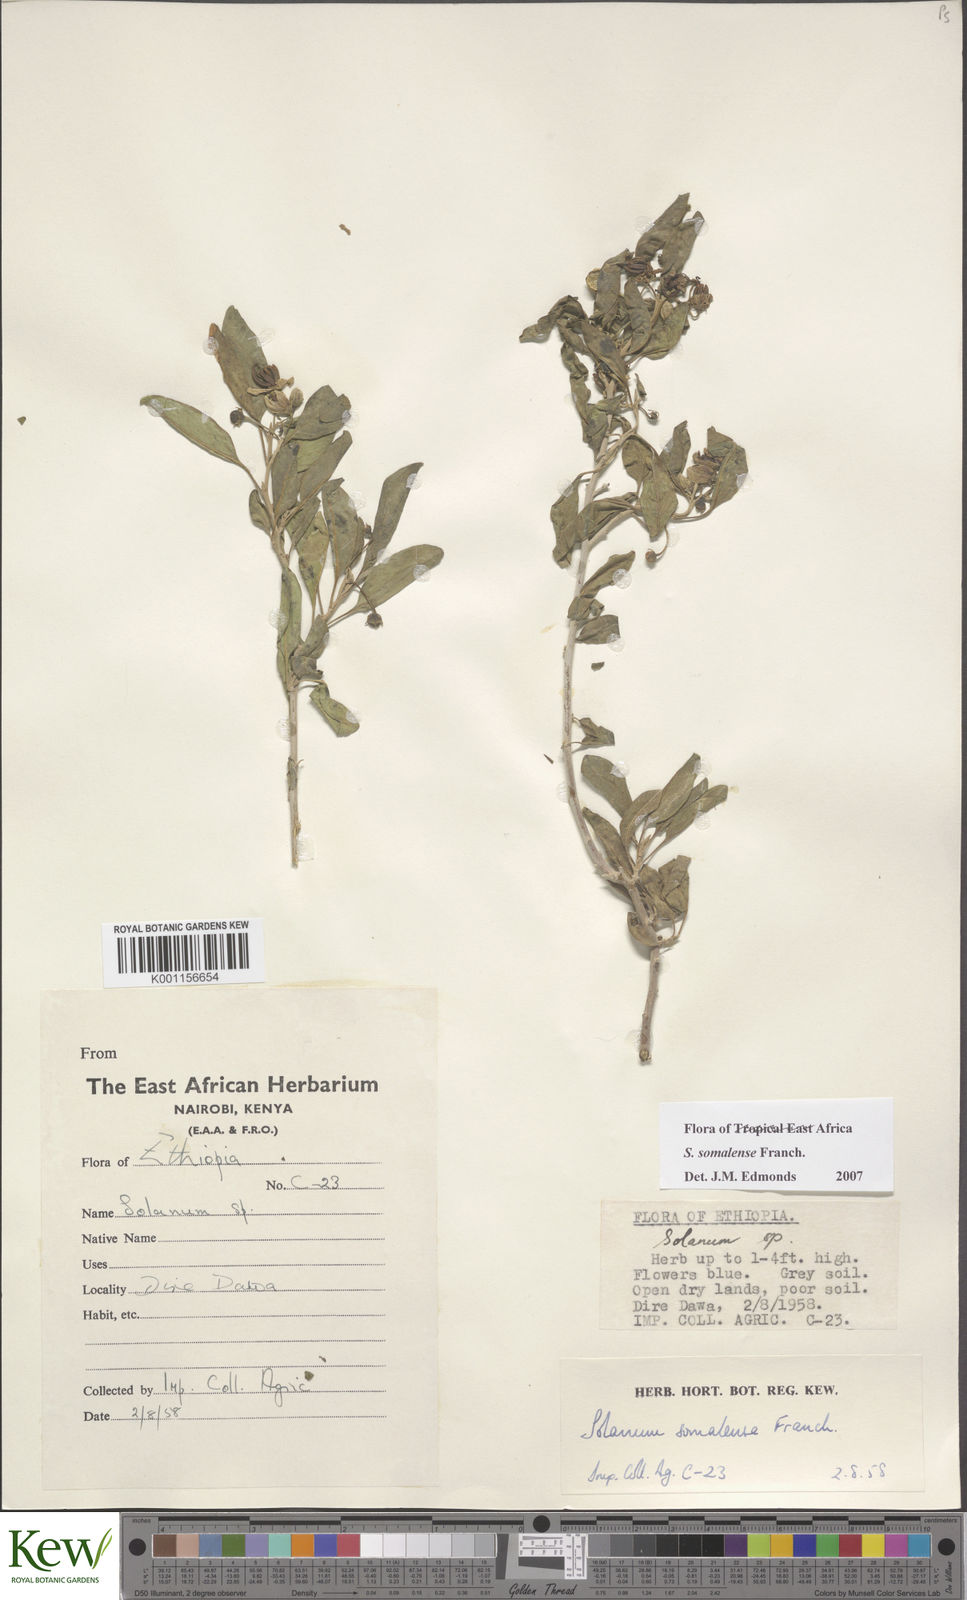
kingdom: Plantae
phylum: Tracheophyta
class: Magnoliopsida
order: Solanales
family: Solanaceae
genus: Solanum
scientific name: Solanum somalense
